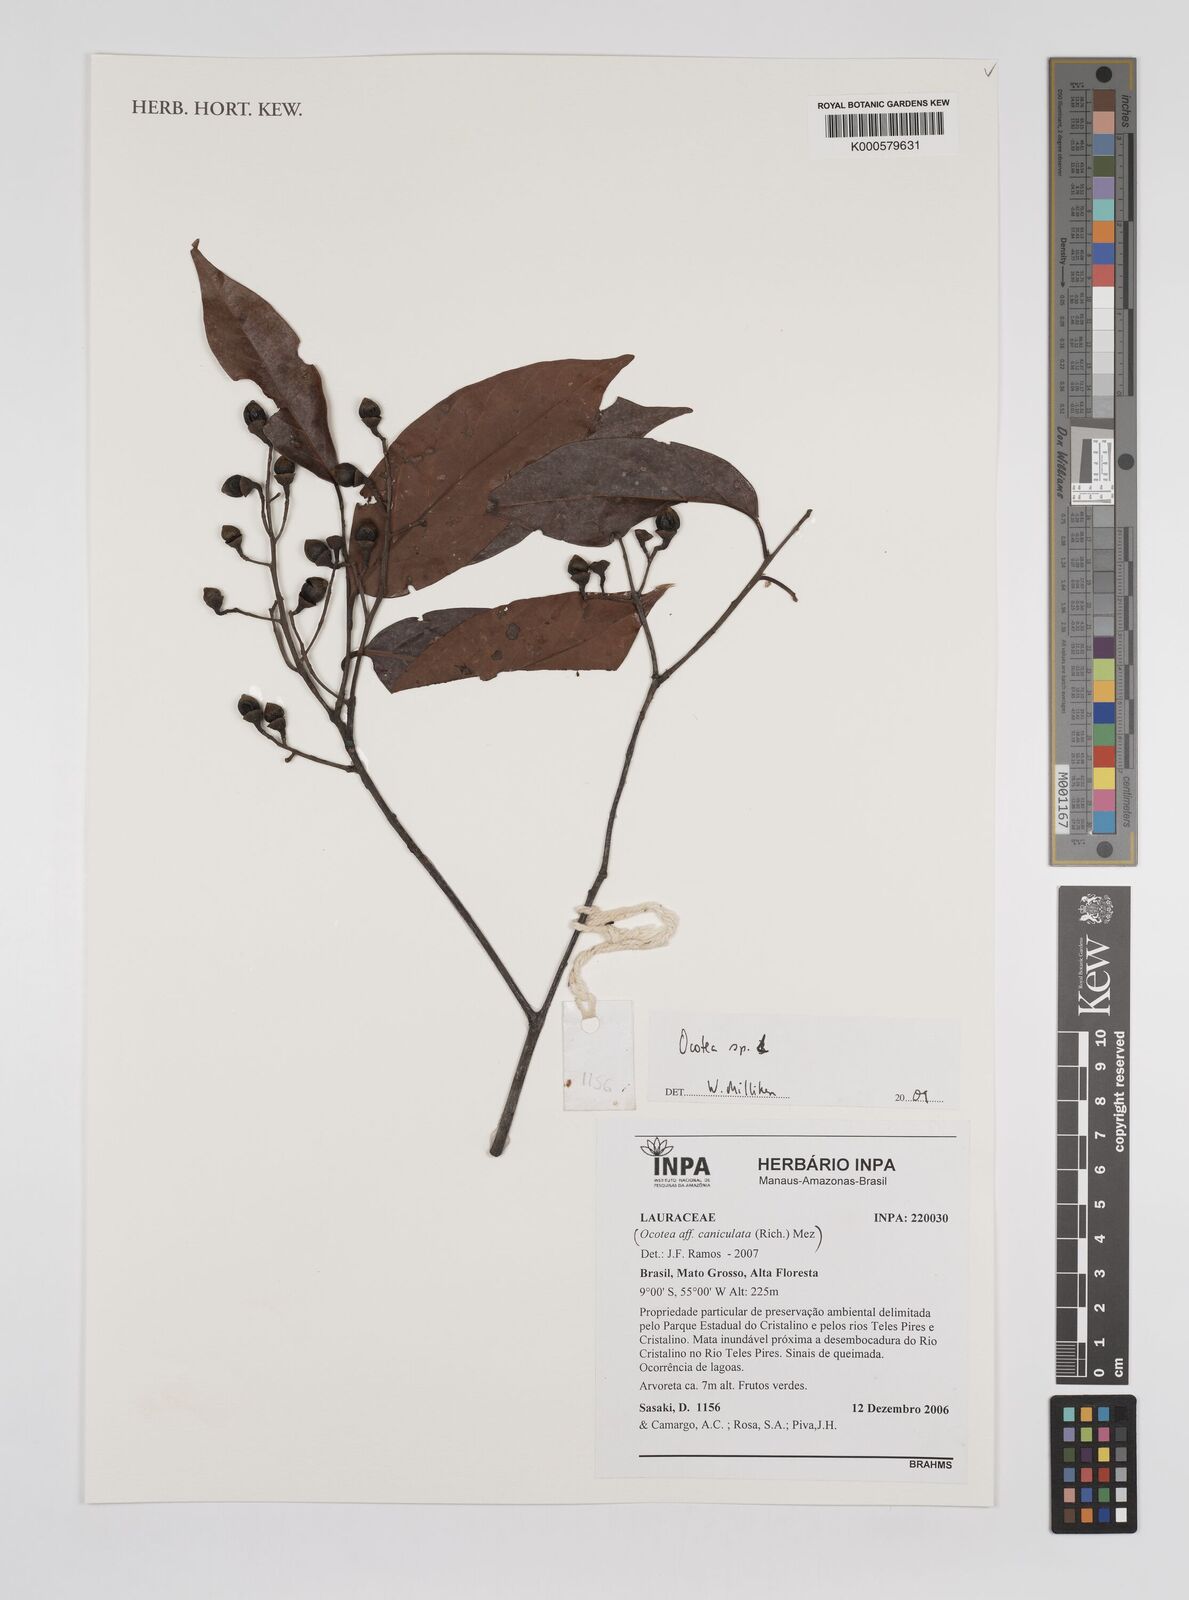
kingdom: Plantae
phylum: Tracheophyta
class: Magnoliopsida
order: Laurales
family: Lauraceae
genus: Ocotea
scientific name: Ocotea
